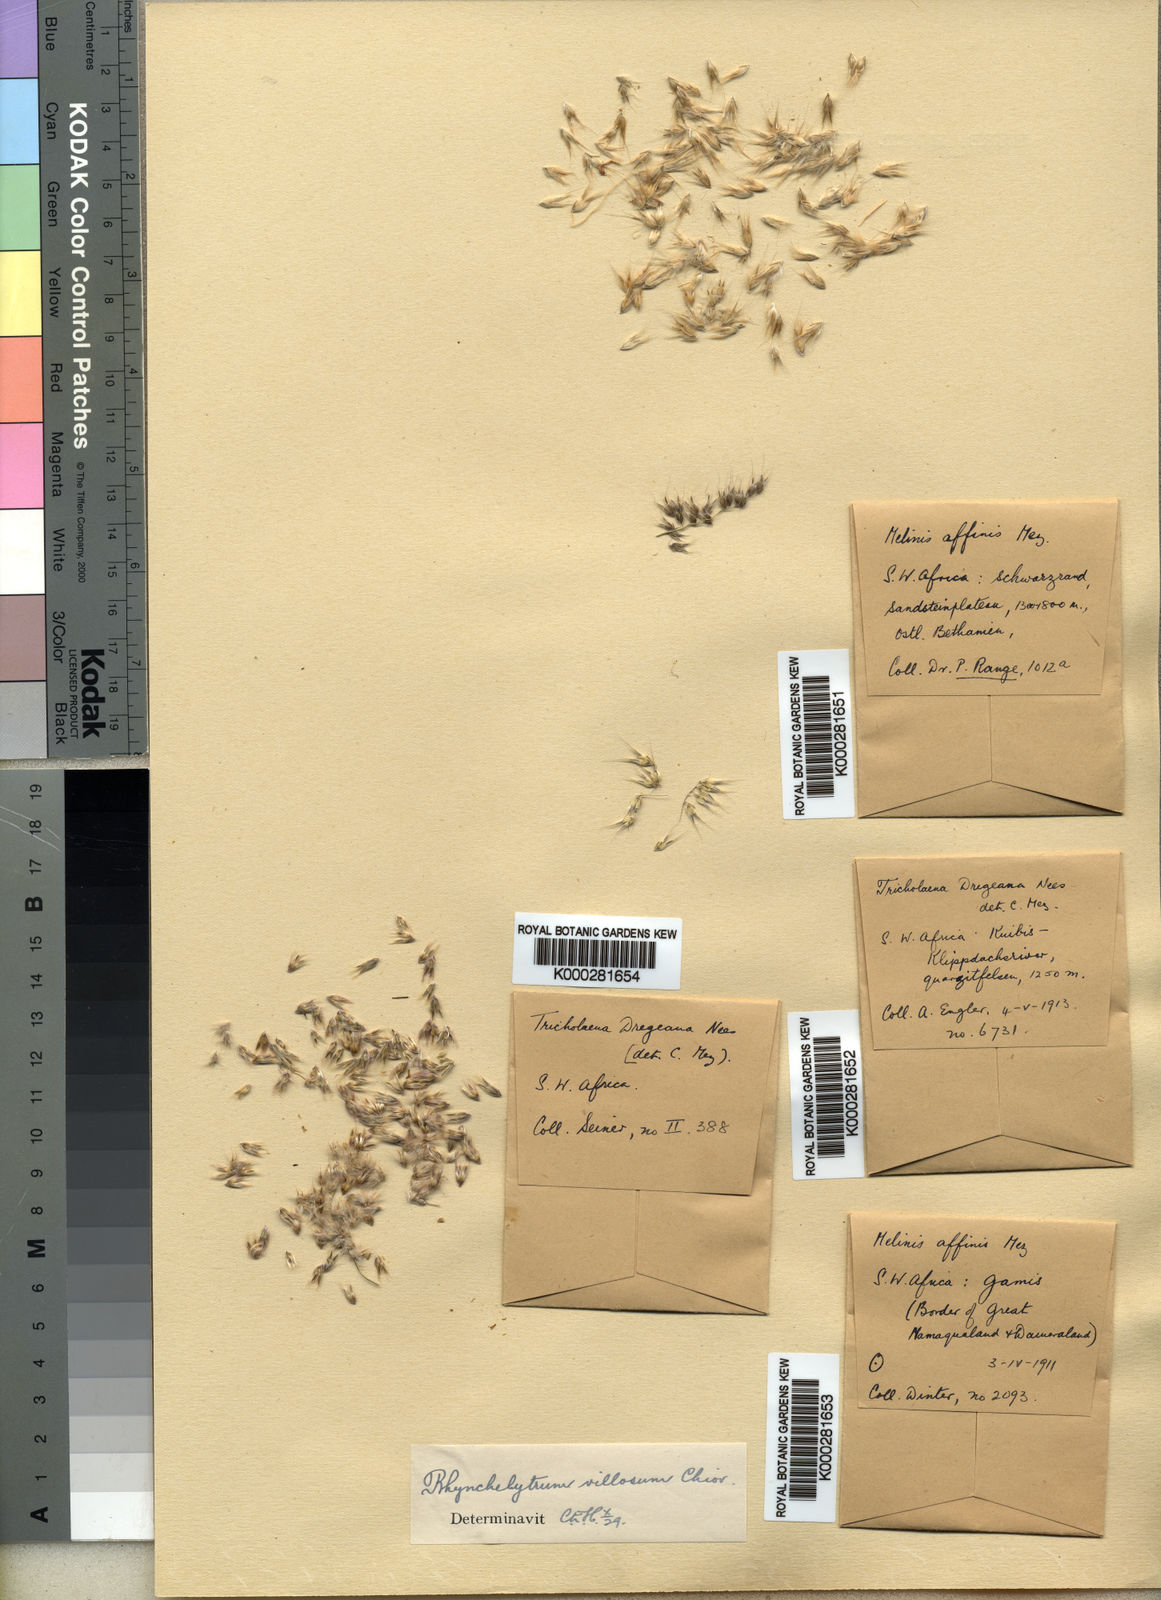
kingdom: Plantae
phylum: Tracheophyta
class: Liliopsida
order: Poales
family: Poaceae
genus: Melinis
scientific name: Melinis repens
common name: Rose natal grass
